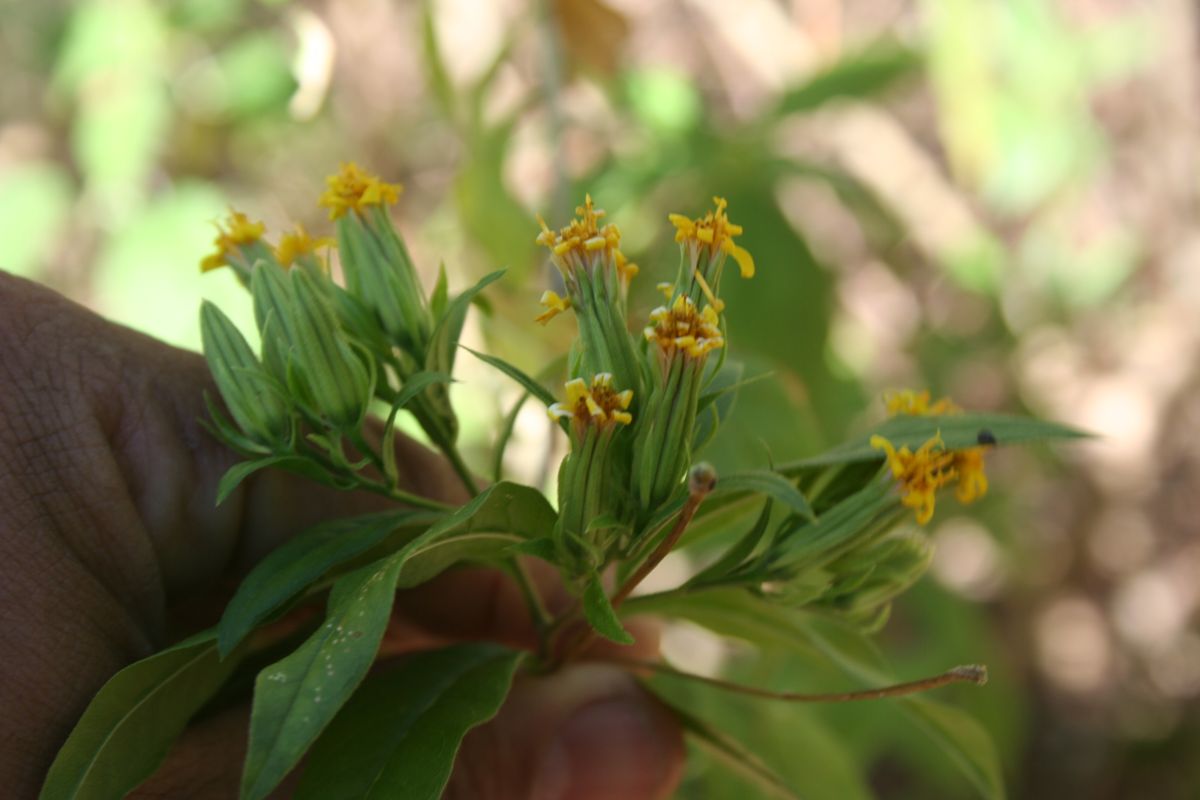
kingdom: Plantae
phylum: Tracheophyta
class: Magnoliopsida
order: Asterales
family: Asteraceae
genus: Trixis
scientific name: Trixis inula
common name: Tropical threefold
